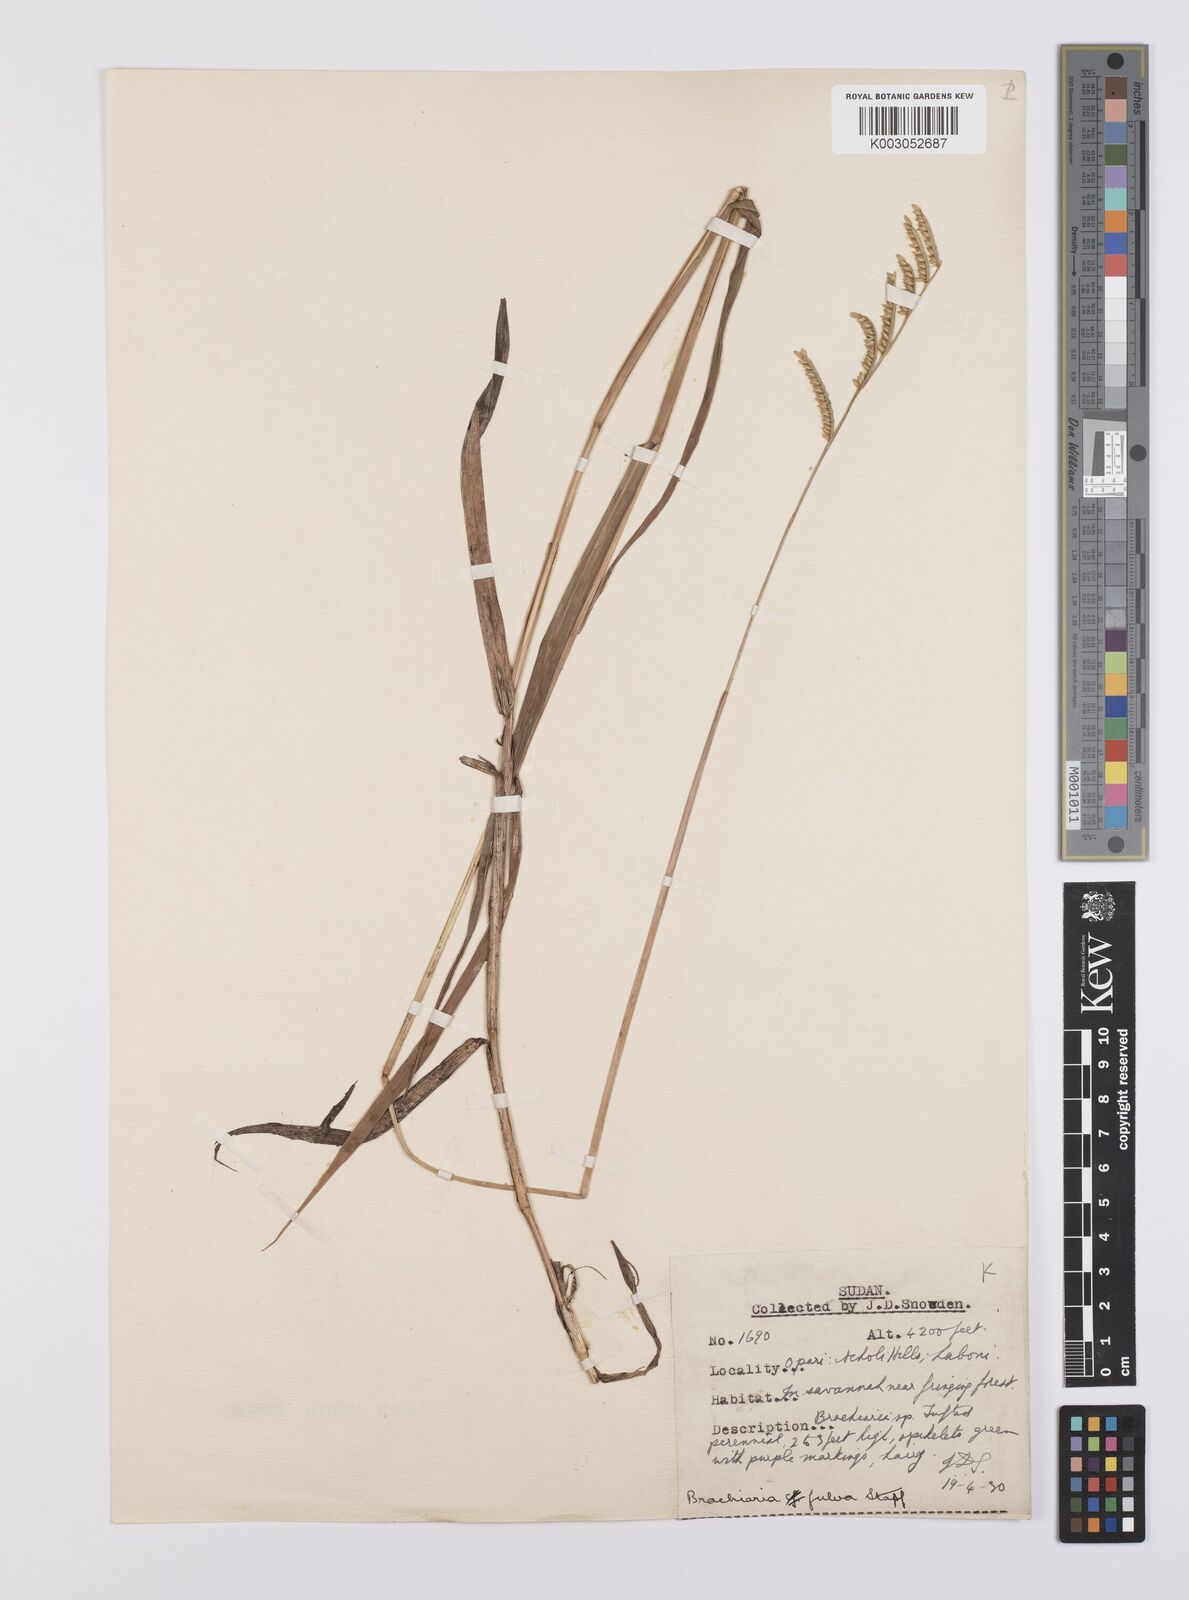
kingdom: Plantae
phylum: Tracheophyta
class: Liliopsida
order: Poales
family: Poaceae
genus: Urochloa
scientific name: Urochloa jubata
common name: Buffalograss
